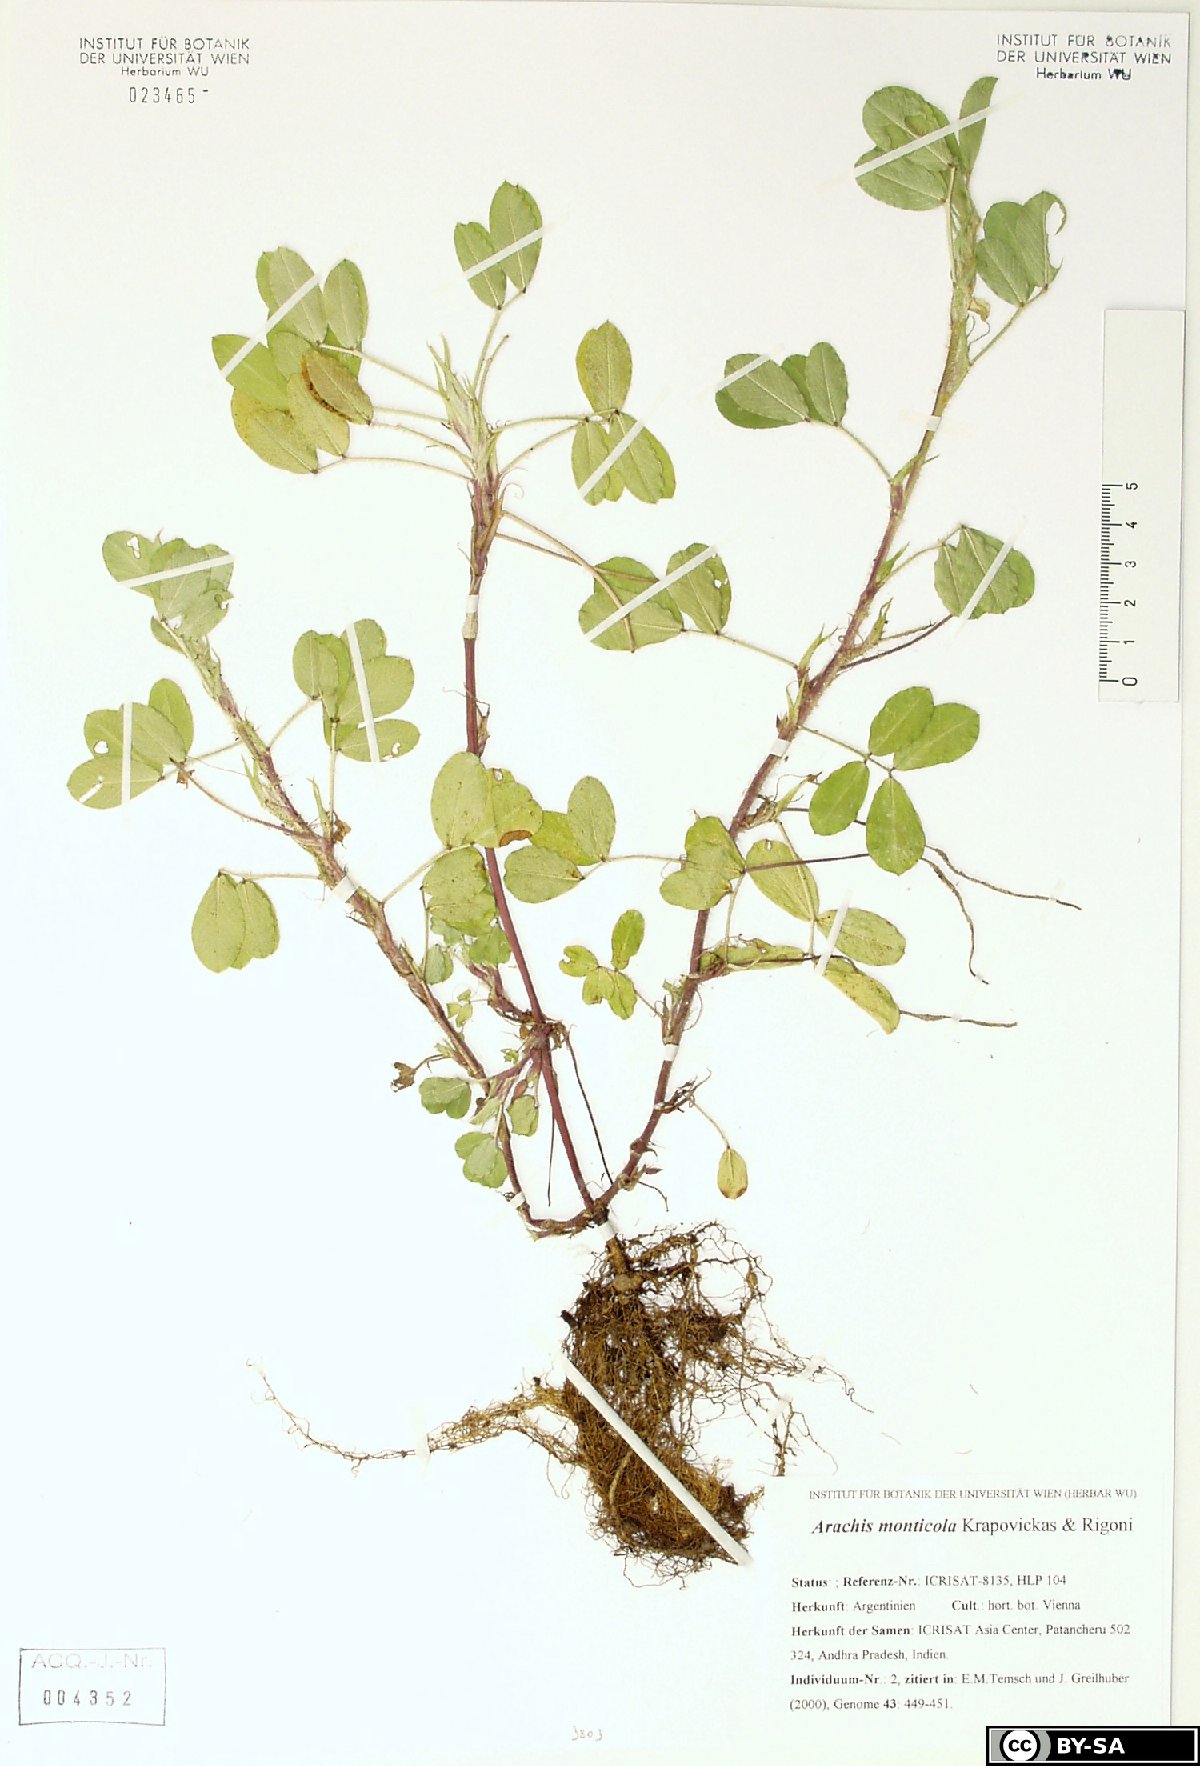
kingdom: Plantae
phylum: Tracheophyta
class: Magnoliopsida
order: Fabales
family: Fabaceae
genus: Arachis
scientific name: Arachis monticola
